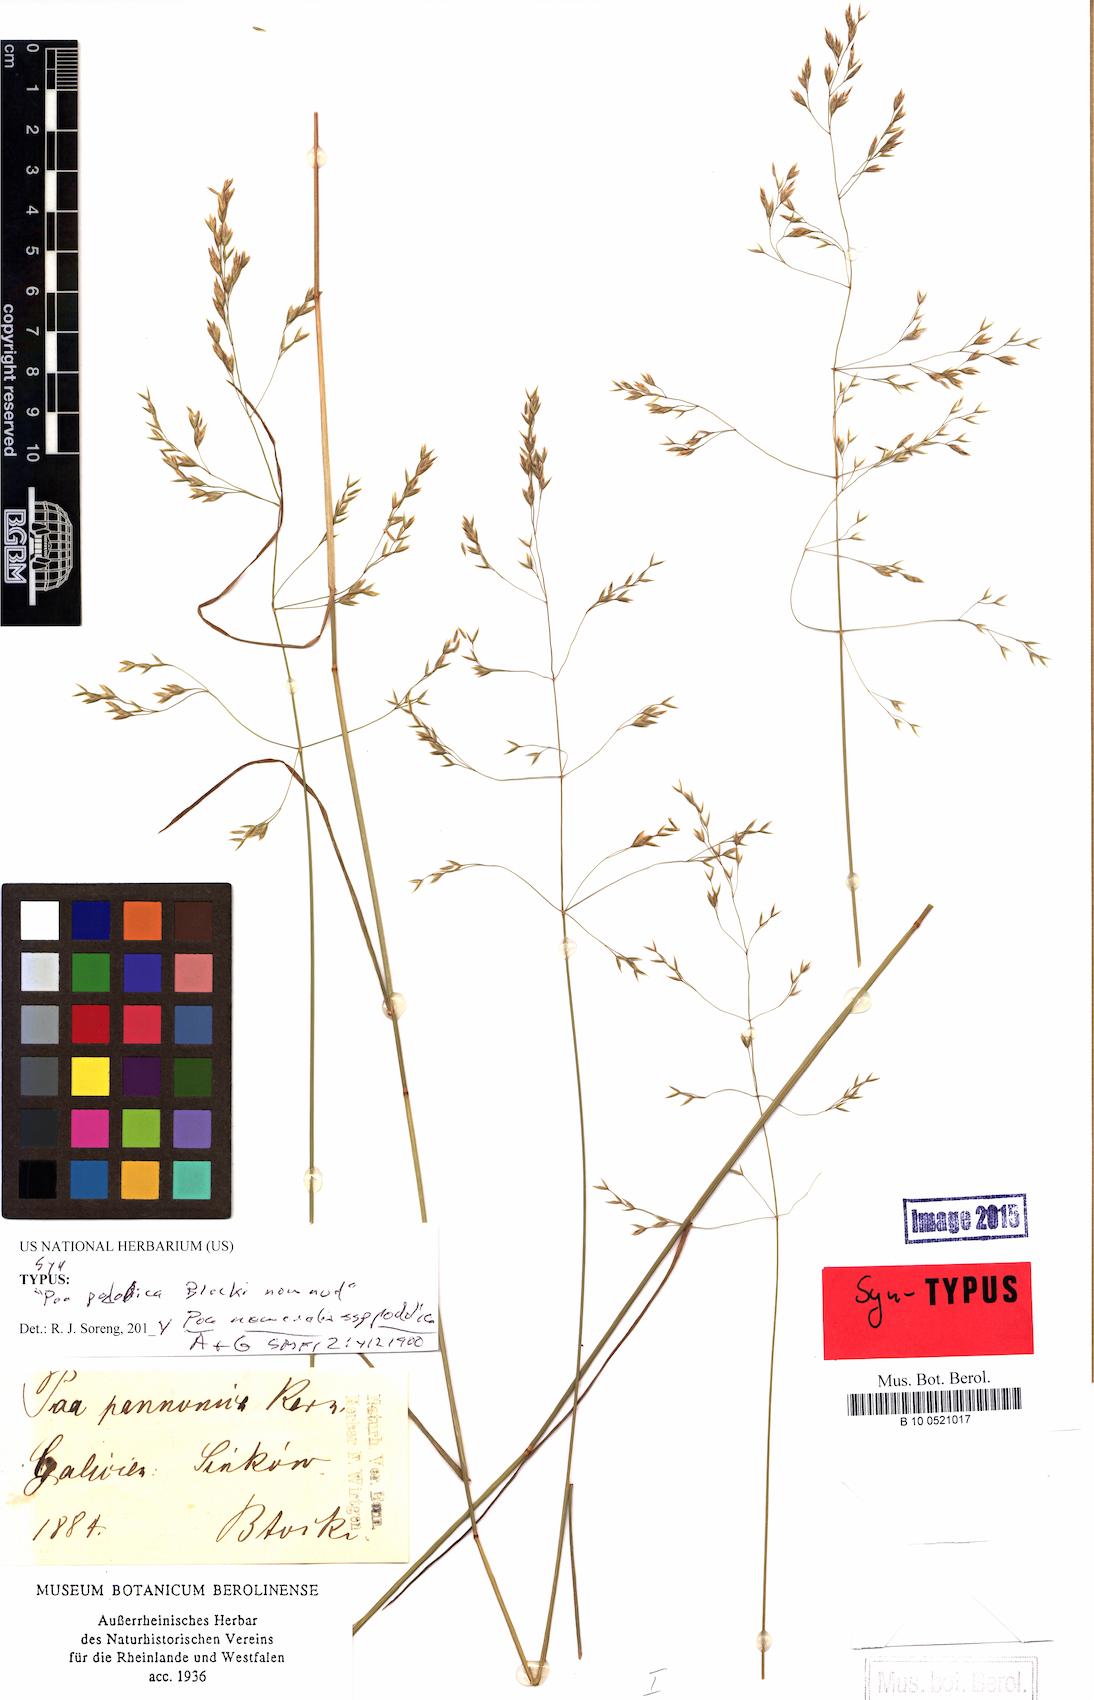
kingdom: Plantae
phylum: Tracheophyta
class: Liliopsida
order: Poales
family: Poaceae
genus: Poa
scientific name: Poa versicolor
